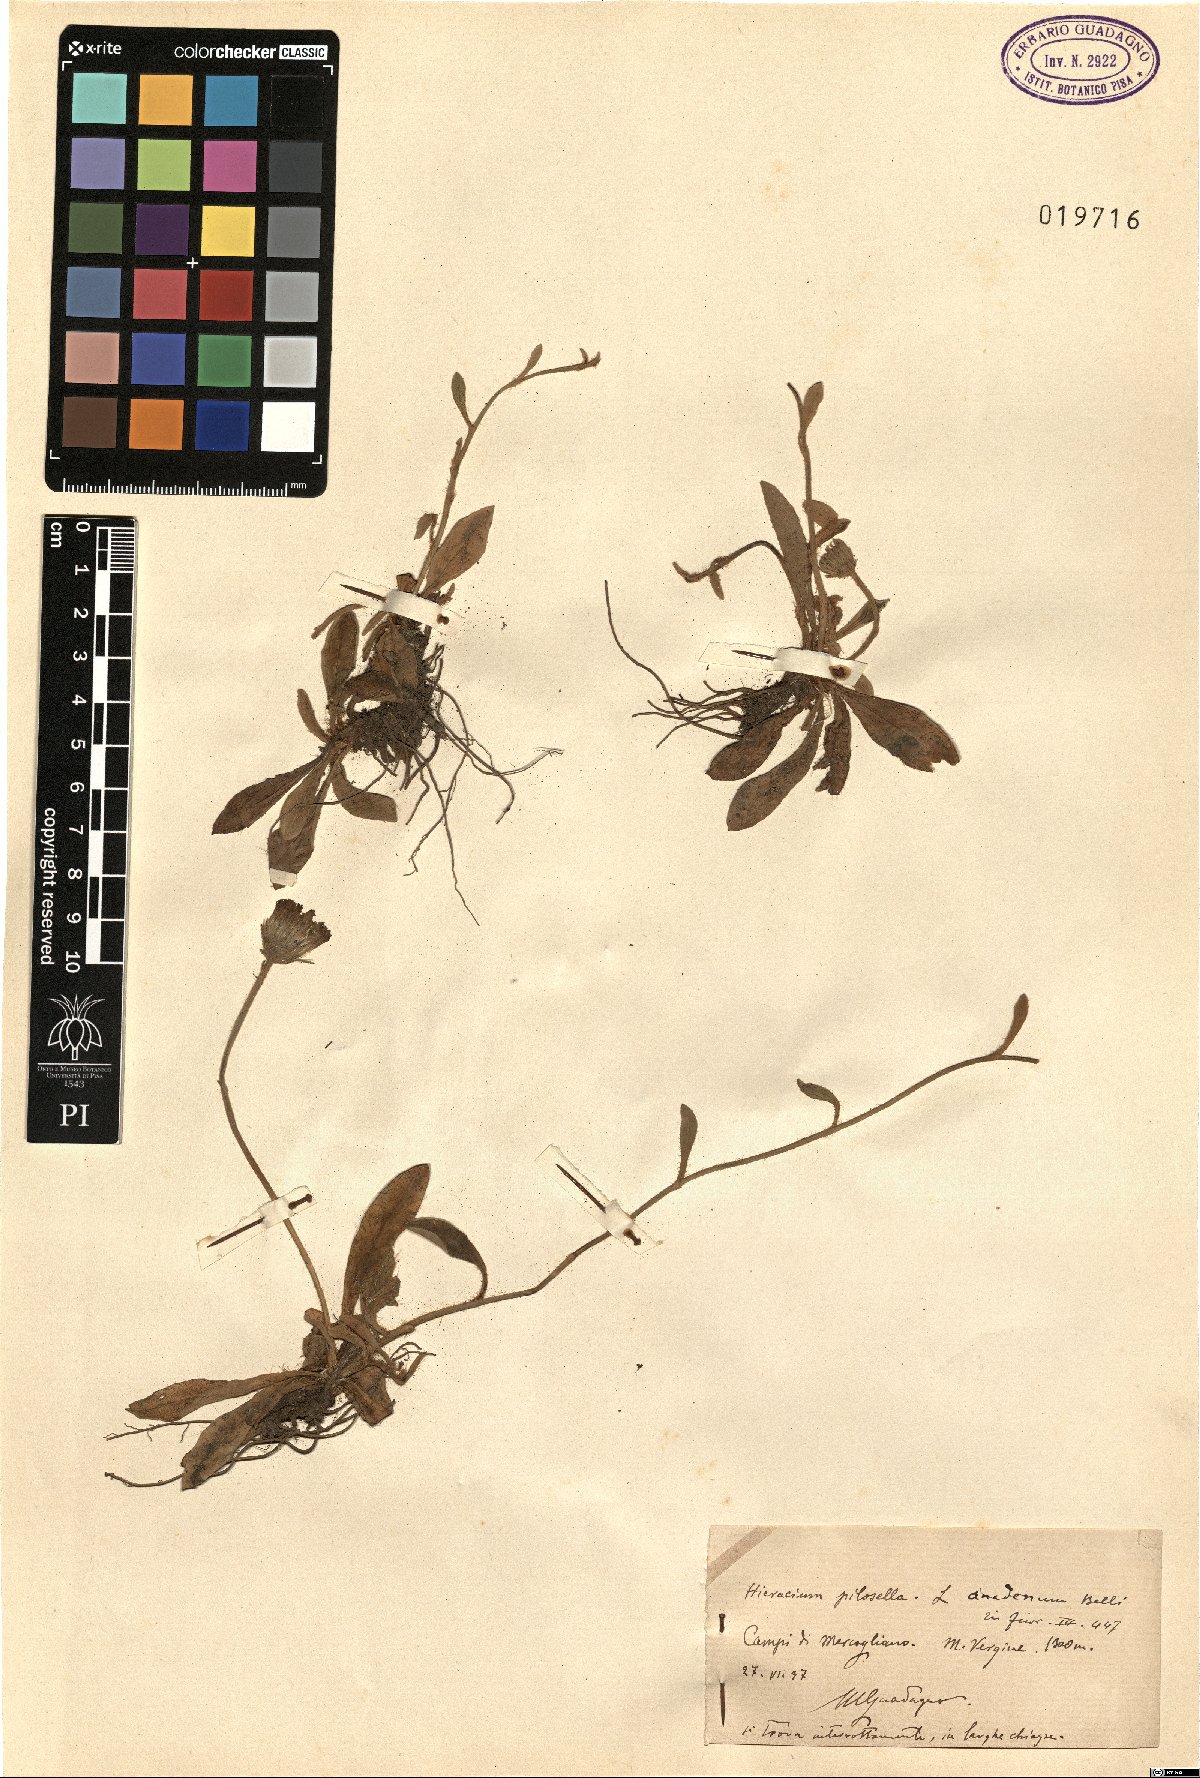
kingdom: Plantae
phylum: Tracheophyta
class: Magnoliopsida
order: Asterales
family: Asteraceae
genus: Pilosella
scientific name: Pilosella officinarum
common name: Mouse-ear hawkweed
